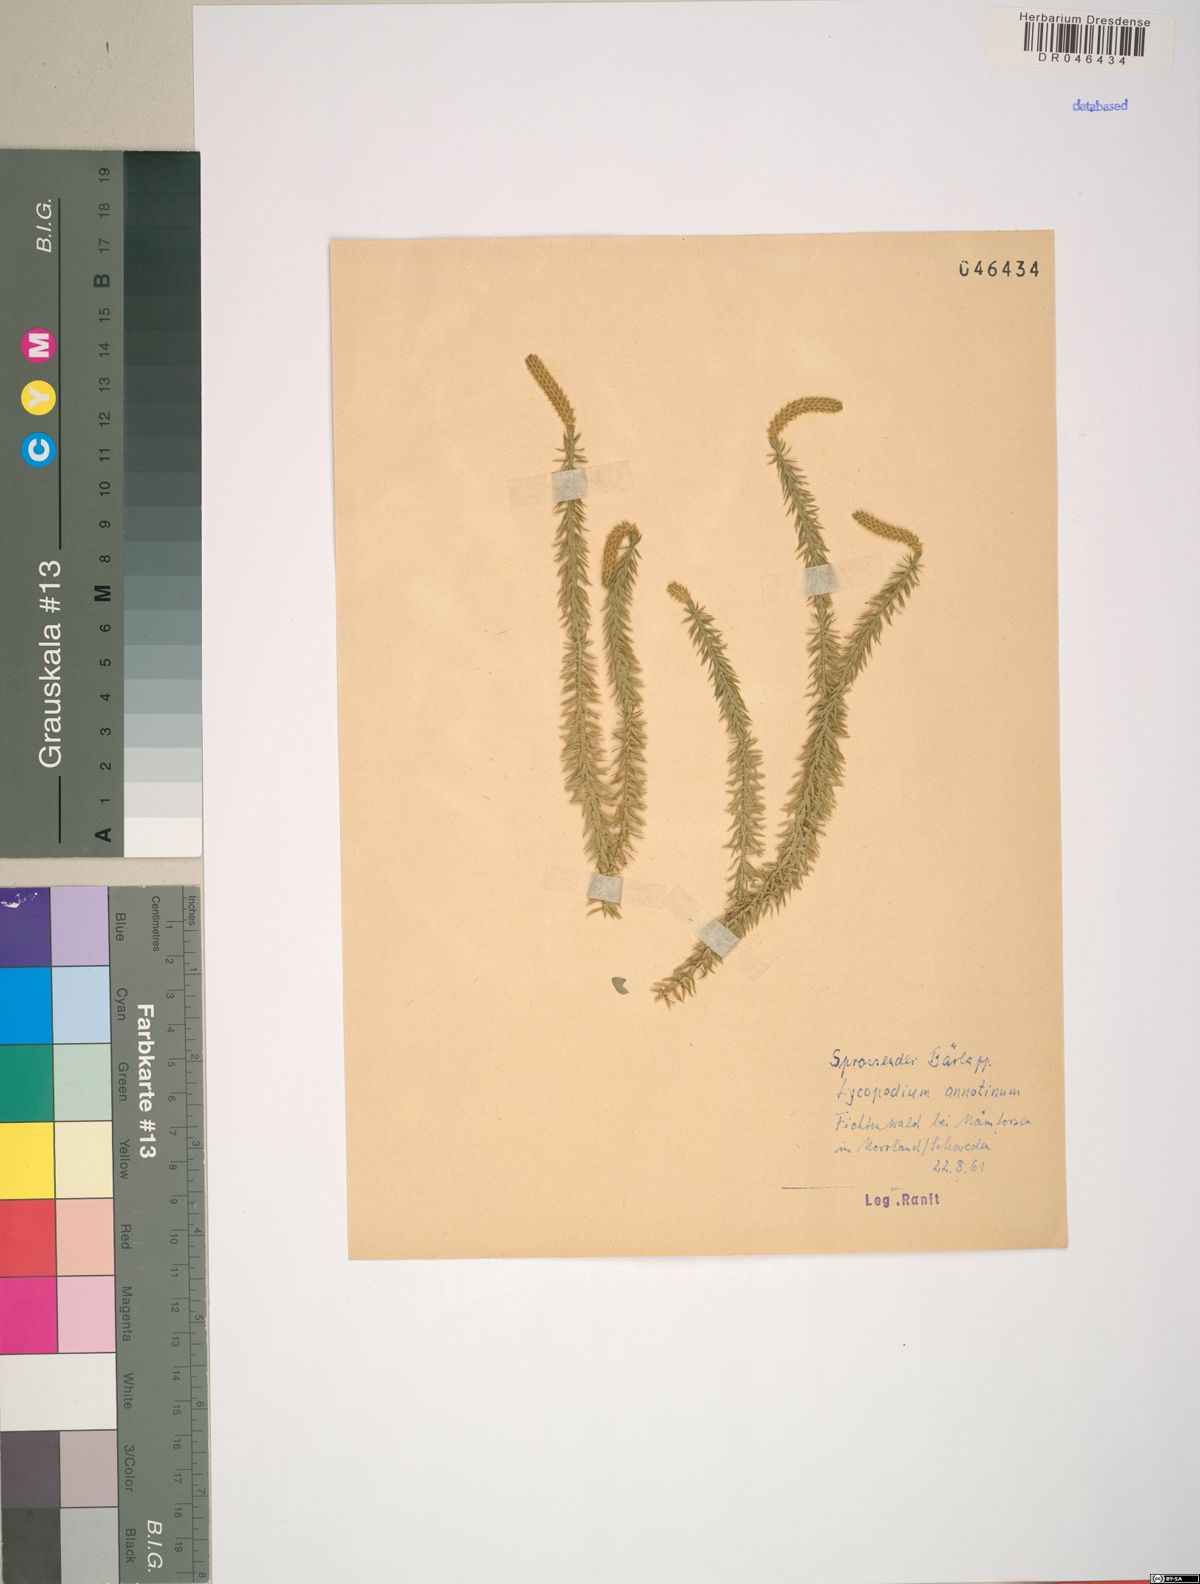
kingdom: Plantae
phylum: Tracheophyta
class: Lycopodiopsida
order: Lycopodiales
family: Lycopodiaceae
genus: Spinulum
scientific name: Spinulum annotinum
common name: Interrupted club-moss
